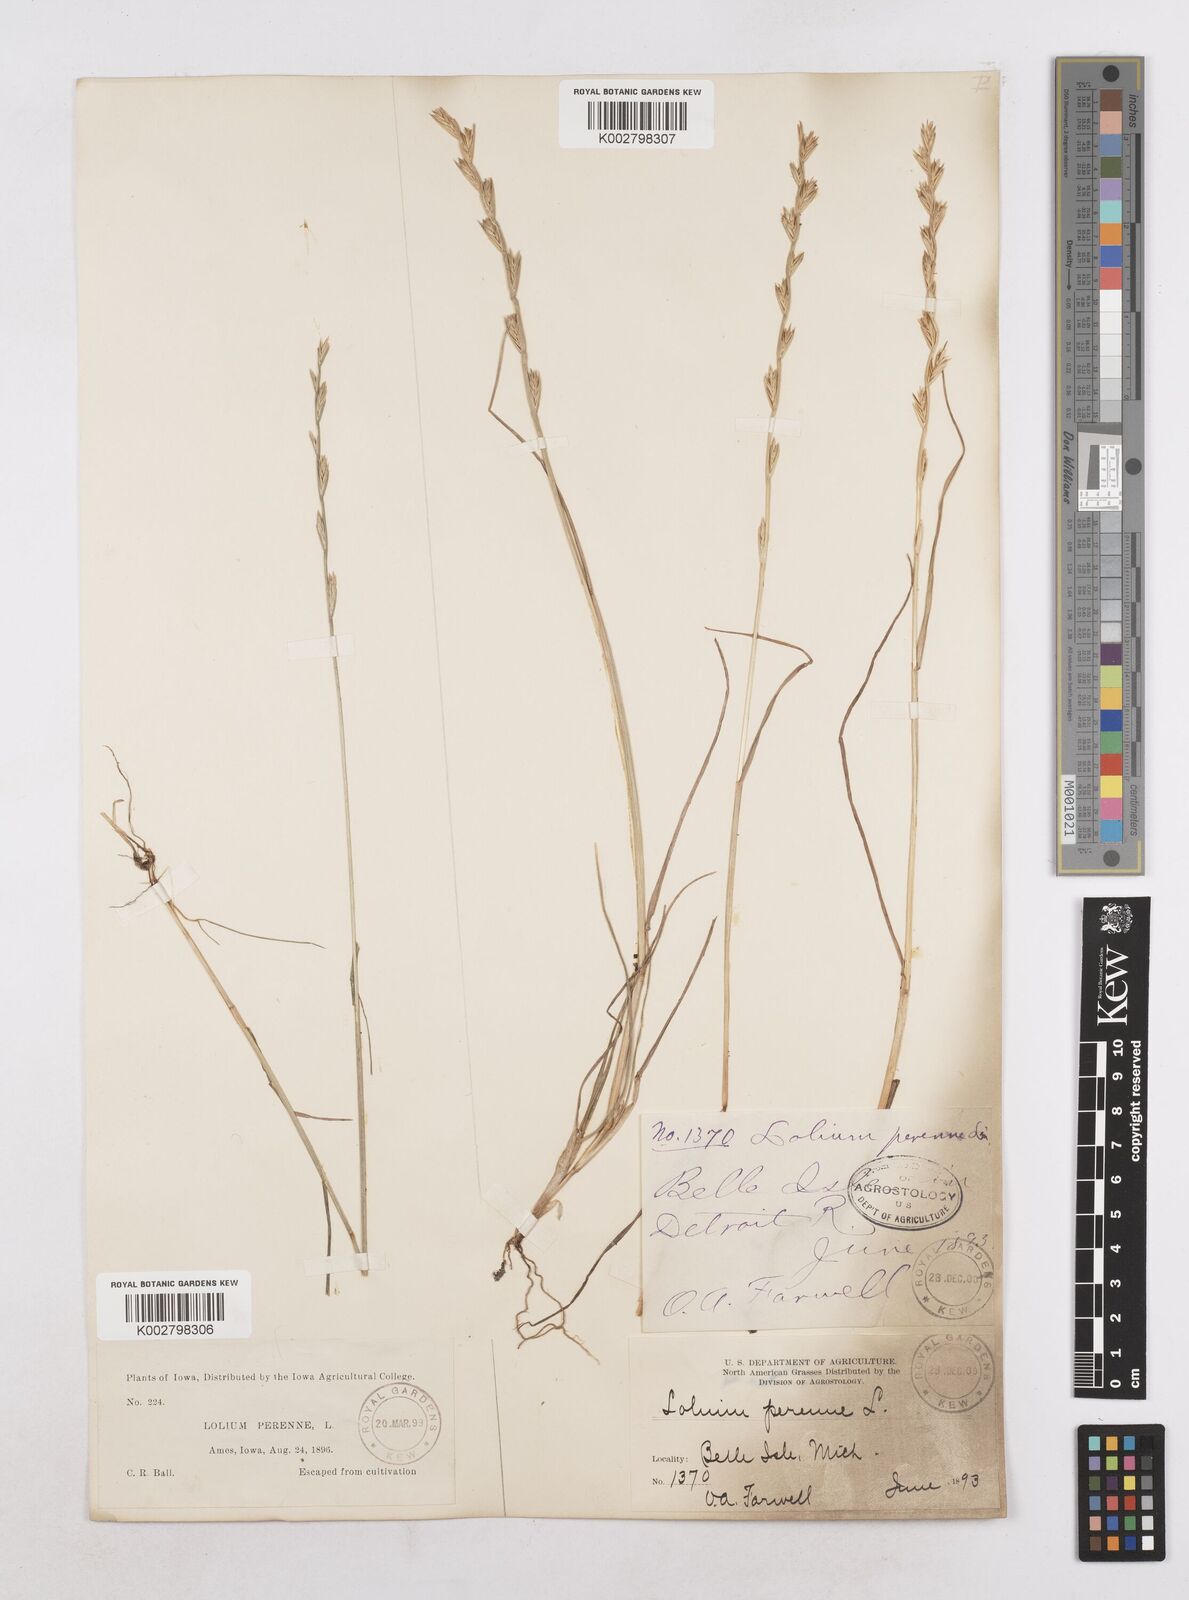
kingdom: Plantae
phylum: Tracheophyta
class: Liliopsida
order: Poales
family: Poaceae
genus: Lolium
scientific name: Lolium perenne
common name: Perennial ryegrass
